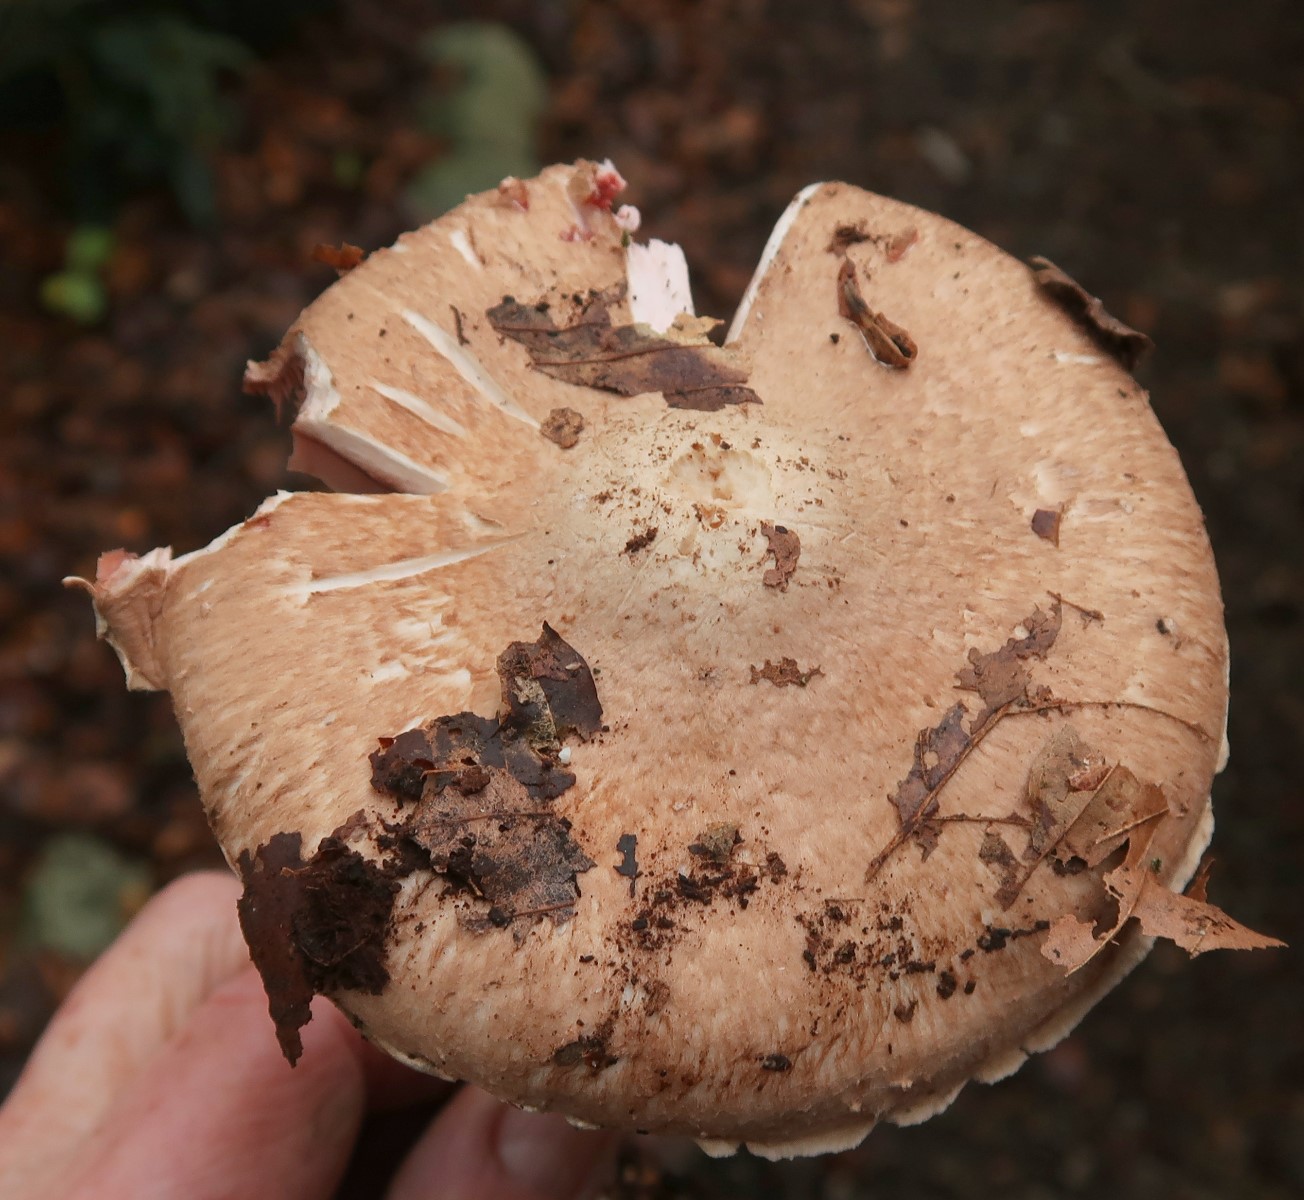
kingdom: Fungi
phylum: Basidiomycota
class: Agaricomycetes
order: Agaricales
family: Agaricaceae
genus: Agaricus
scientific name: Agaricus
